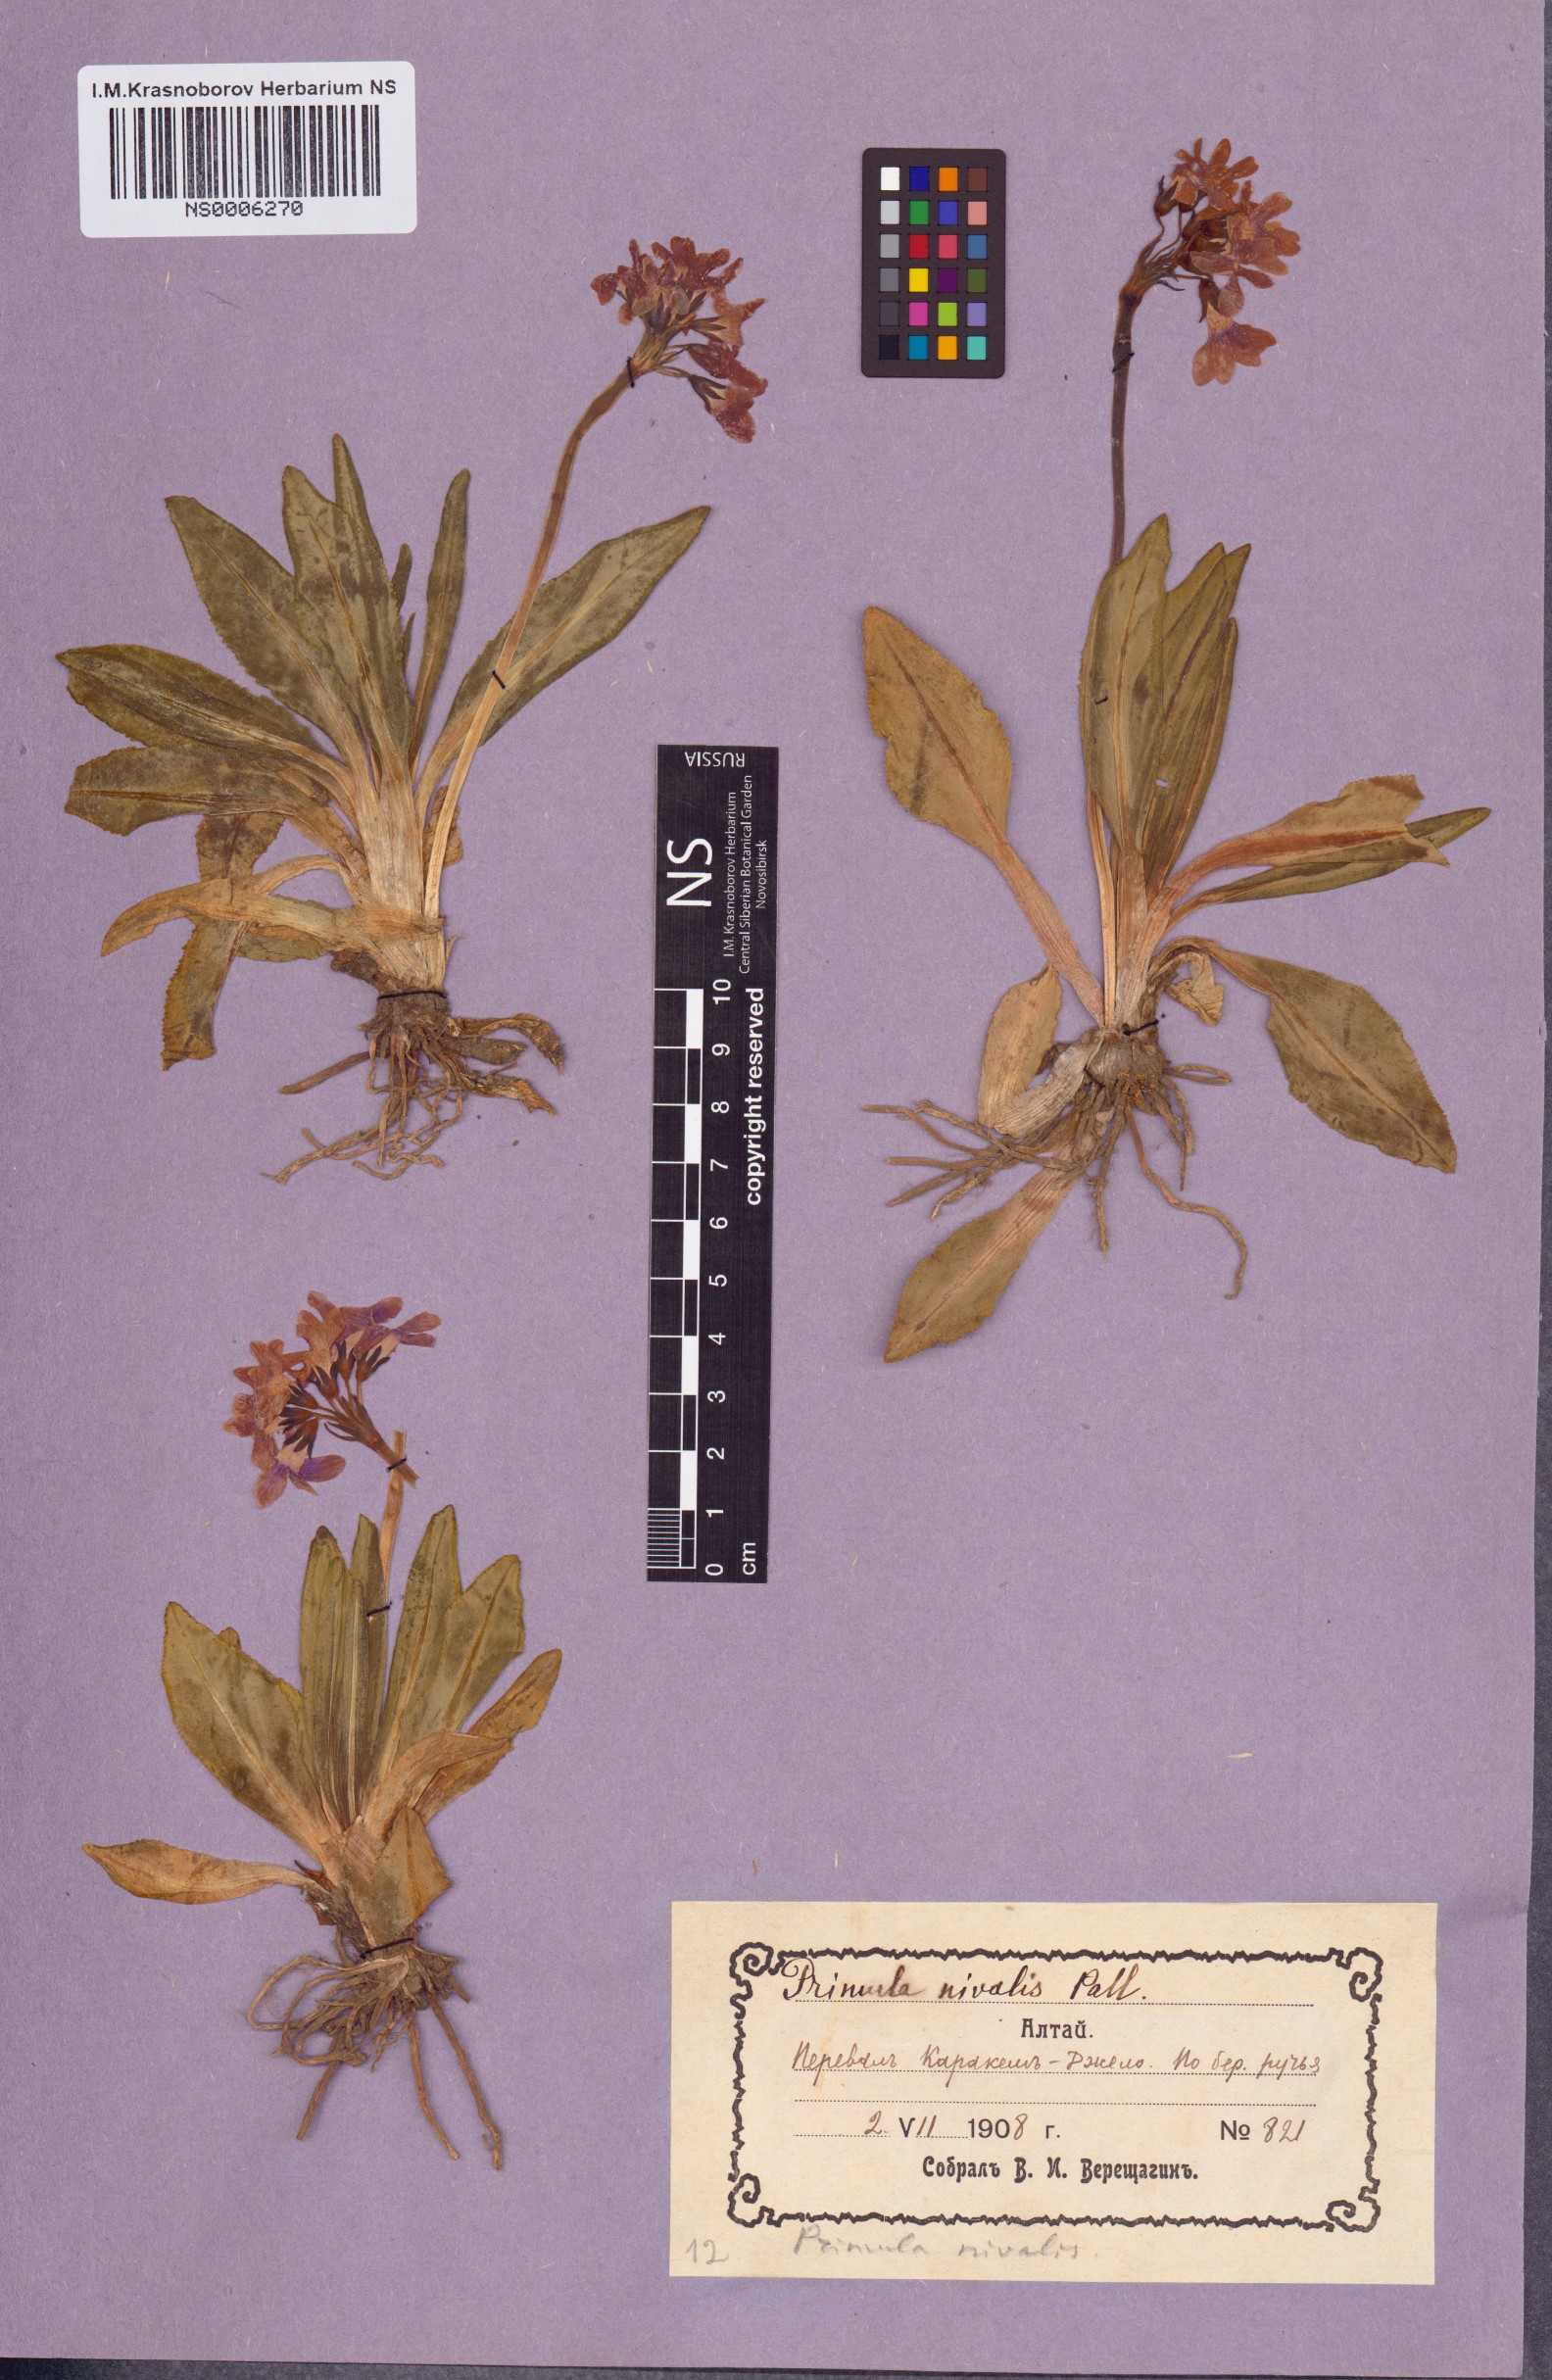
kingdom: Plantae
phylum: Tracheophyta
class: Magnoliopsida
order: Ericales
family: Primulaceae
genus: Primula
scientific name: Primula nivalis
